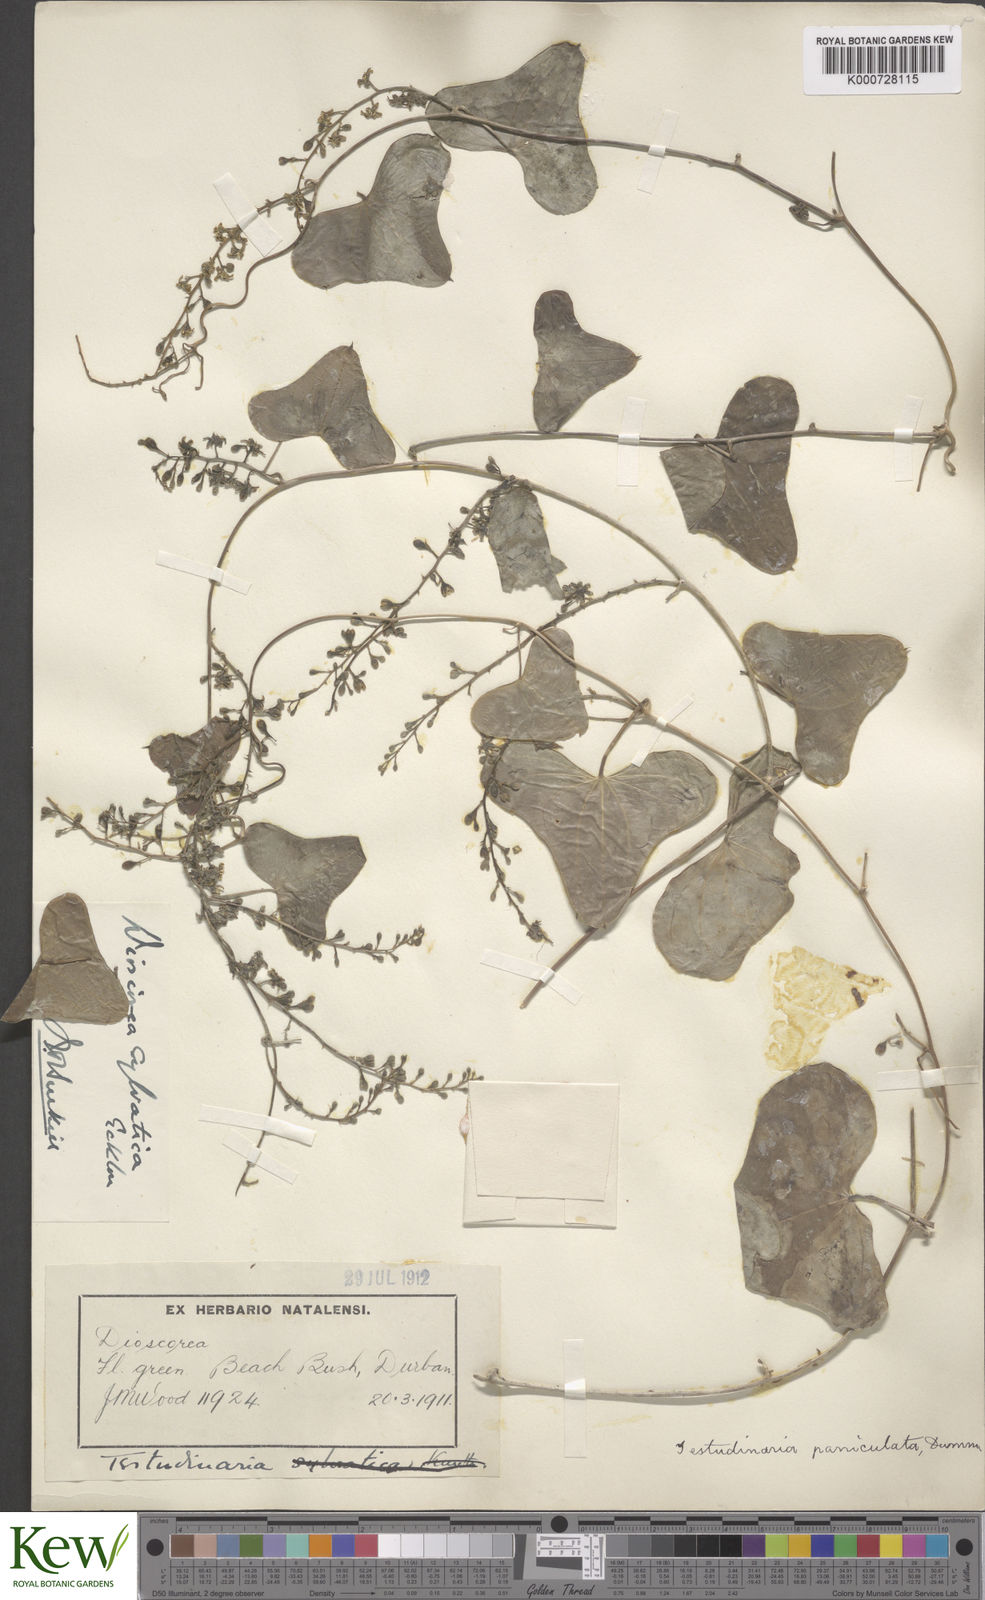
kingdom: Plantae
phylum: Tracheophyta
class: Liliopsida
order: Dioscoreales
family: Dioscoreaceae
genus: Dioscorea
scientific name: Dioscorea sylvatica
